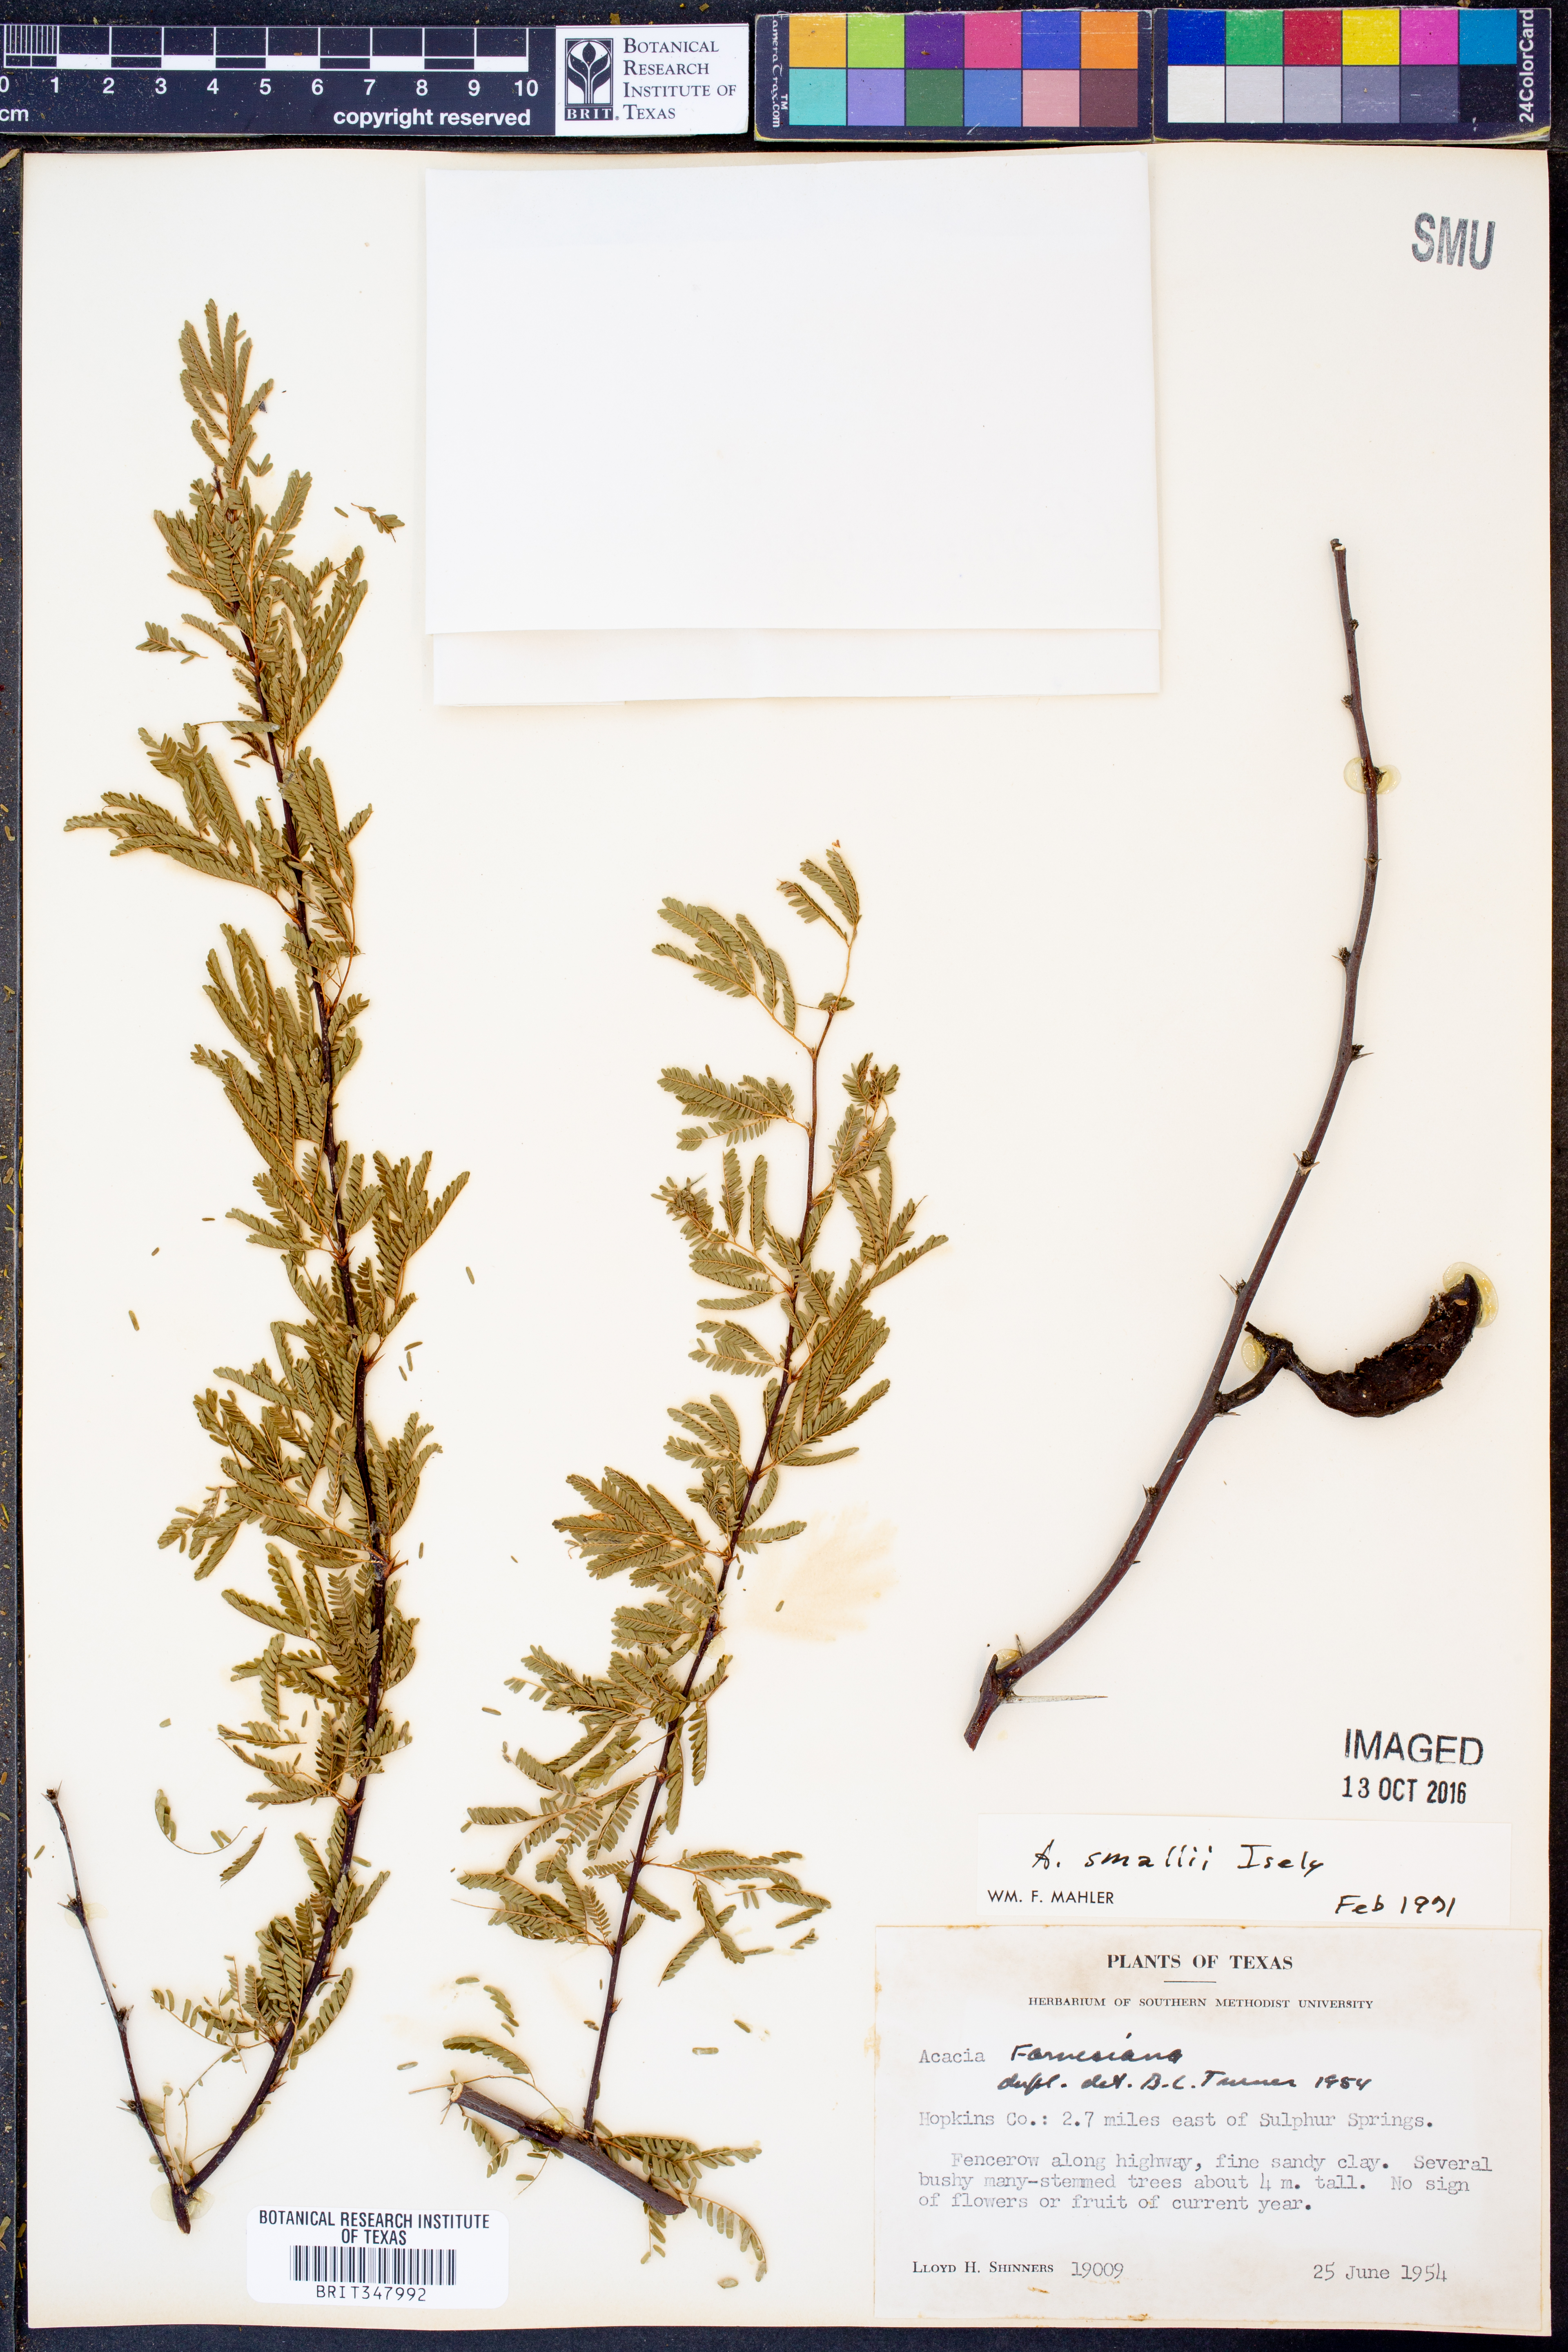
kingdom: Plantae
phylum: Tracheophyta
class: Magnoliopsida
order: Fabales
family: Fabaceae
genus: Vachellia
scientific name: Vachellia farnesiana
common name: Sweet acacia
